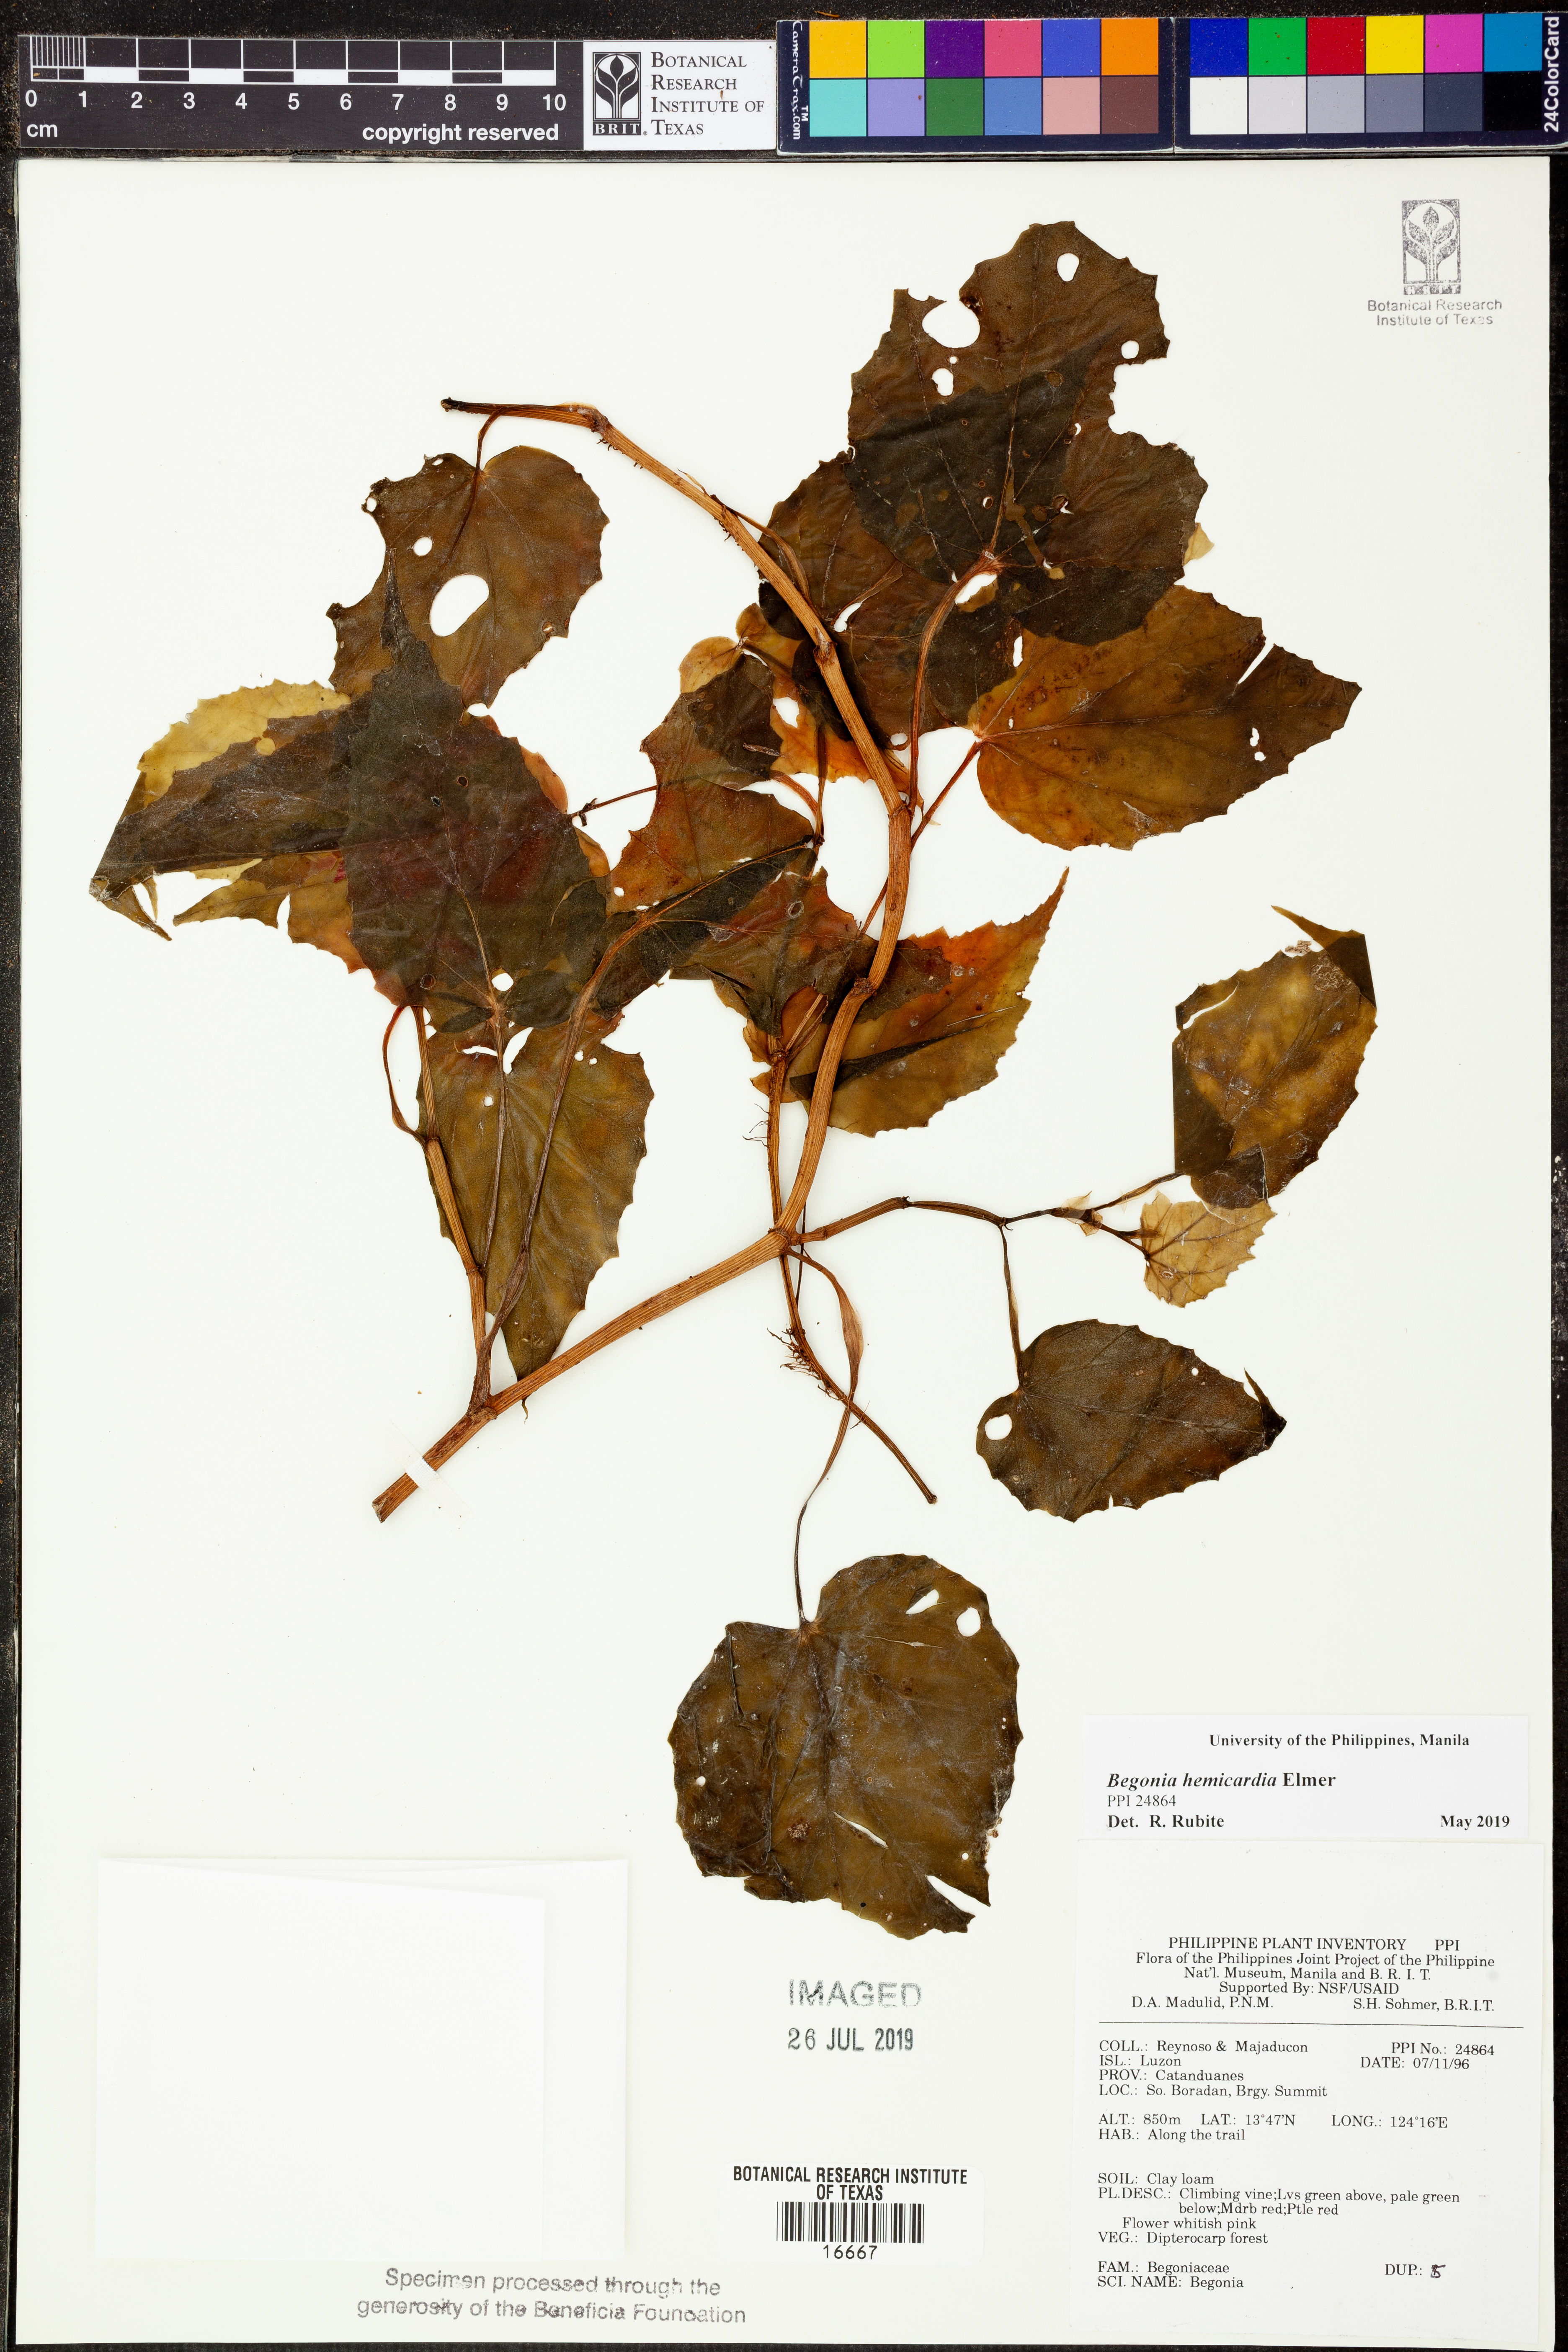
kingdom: Plantae
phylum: Tracheophyta
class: Magnoliopsida
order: Cucurbitales
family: Begoniaceae
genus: Begonia
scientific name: Begonia hemicardia
